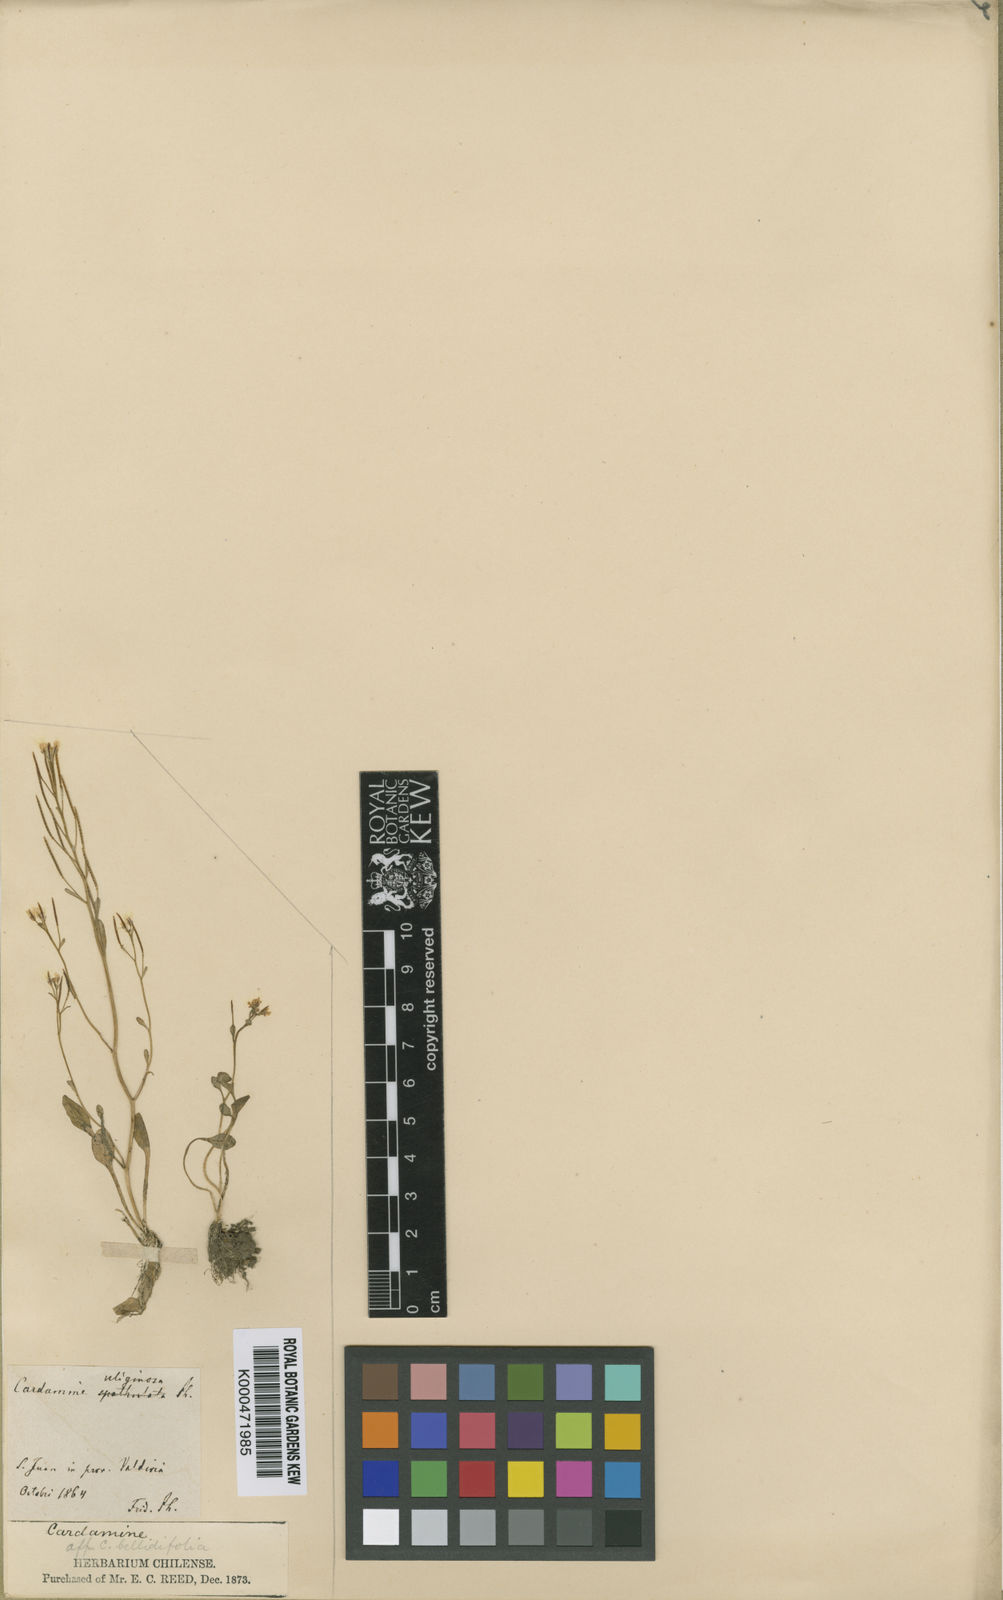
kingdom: Plantae
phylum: Tracheophyta
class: Magnoliopsida
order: Brassicales
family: Brassicaceae
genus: Cardamine
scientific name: Cardamine uliginosa
